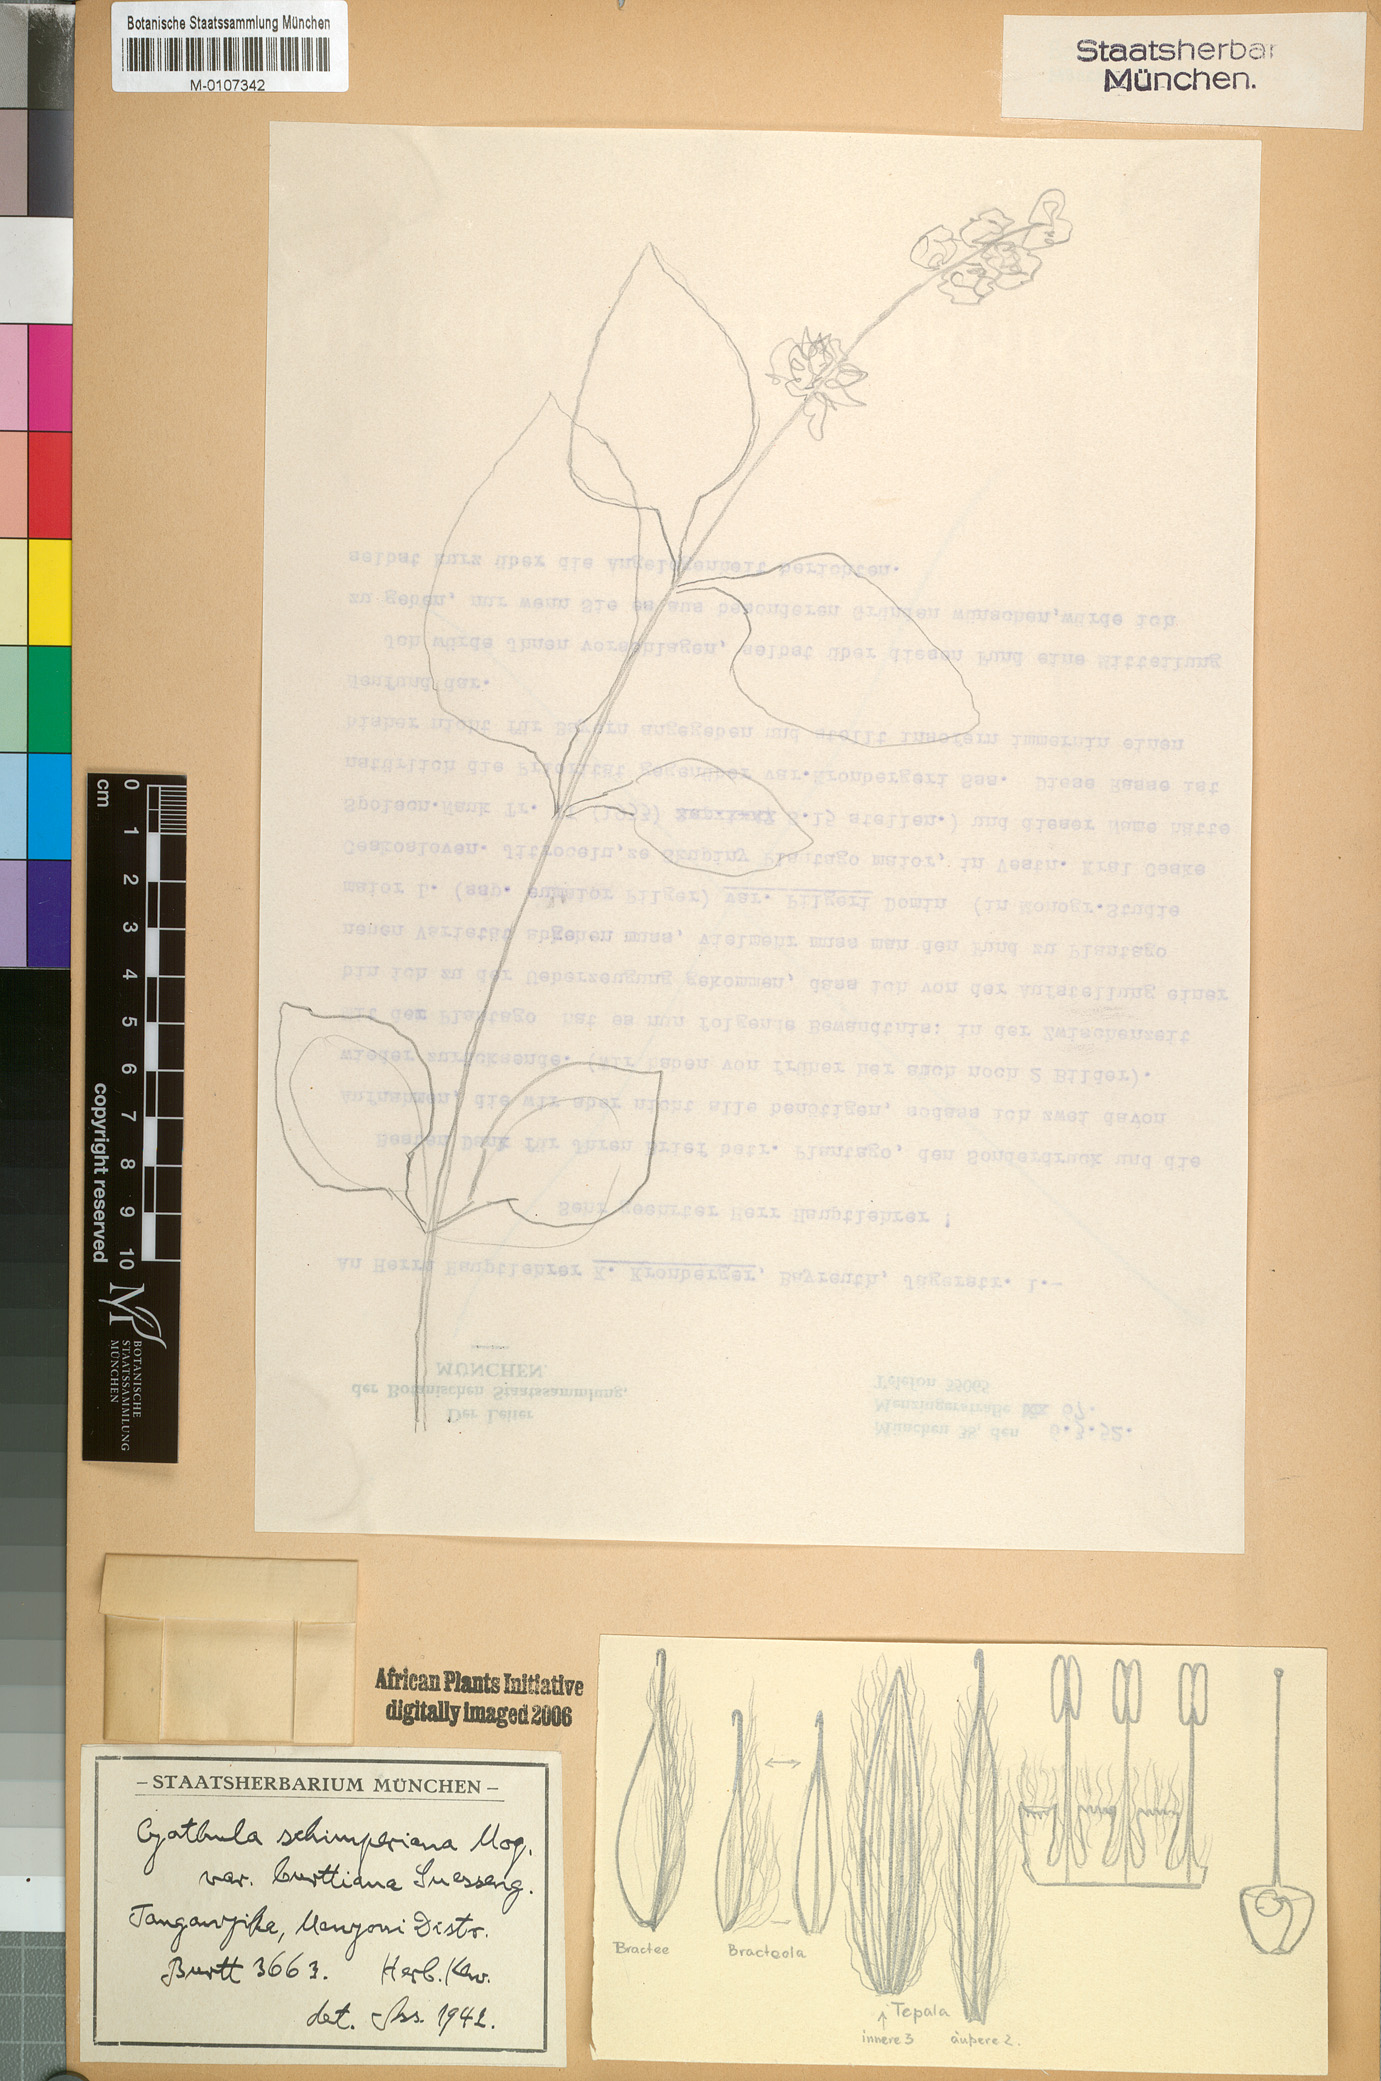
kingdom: Plantae
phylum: Tracheophyta
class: Magnoliopsida
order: Caryophyllales
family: Amaranthaceae
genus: Cyathula
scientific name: Cyathula divulsa
